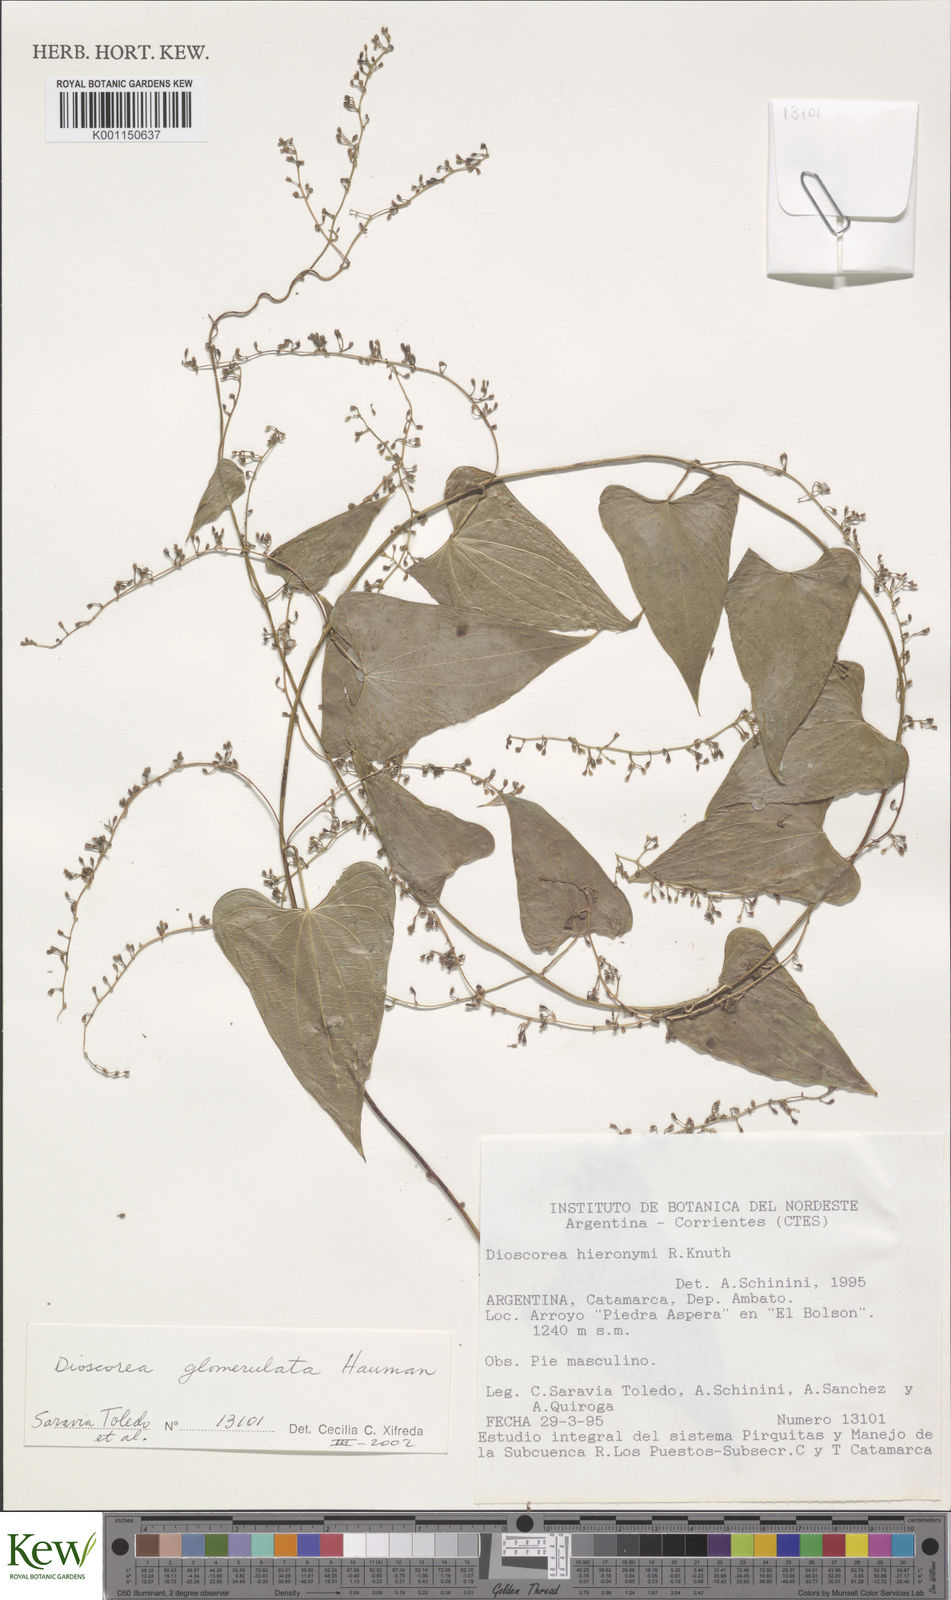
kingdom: Plantae
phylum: Tracheophyta
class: Liliopsida
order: Dioscoreales
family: Dioscoreaceae
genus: Dioscorea
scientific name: Dioscorea glomerulata
